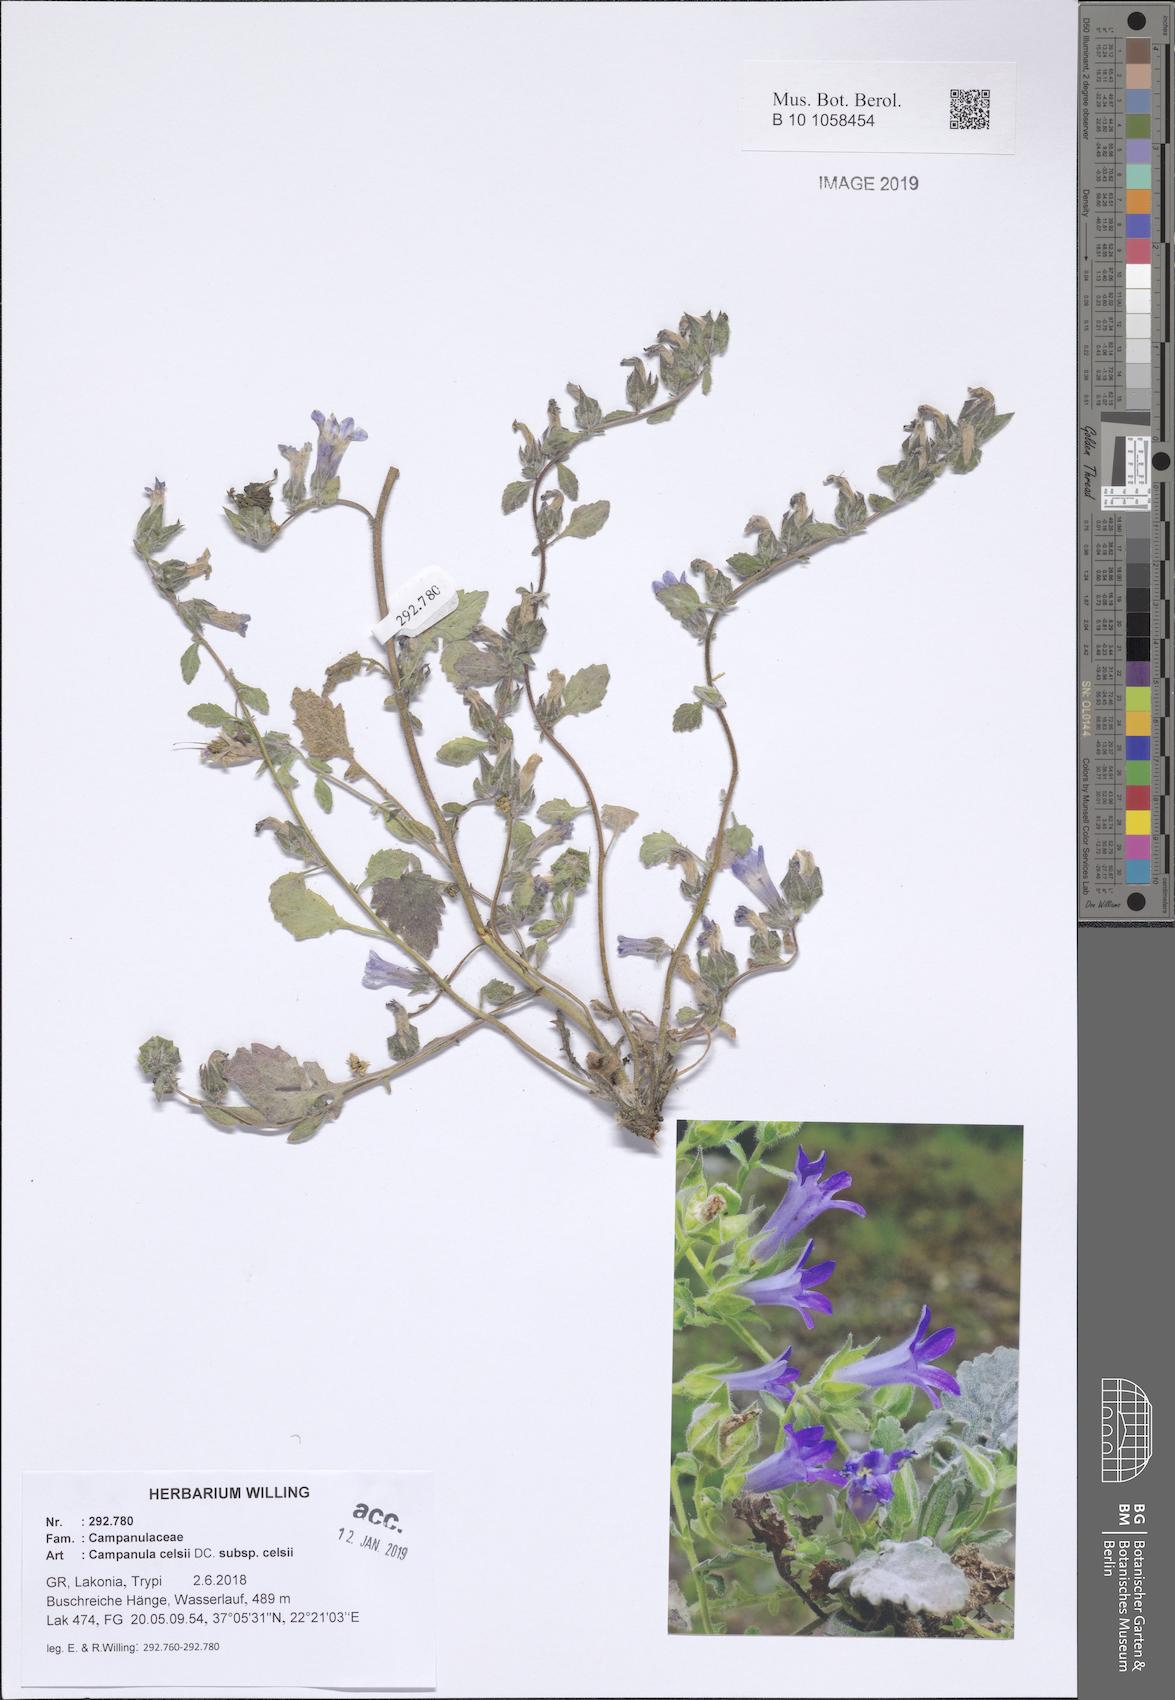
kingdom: Plantae
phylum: Tracheophyta
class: Magnoliopsida
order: Asterales
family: Campanulaceae
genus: Campanula
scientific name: Campanula celsii
